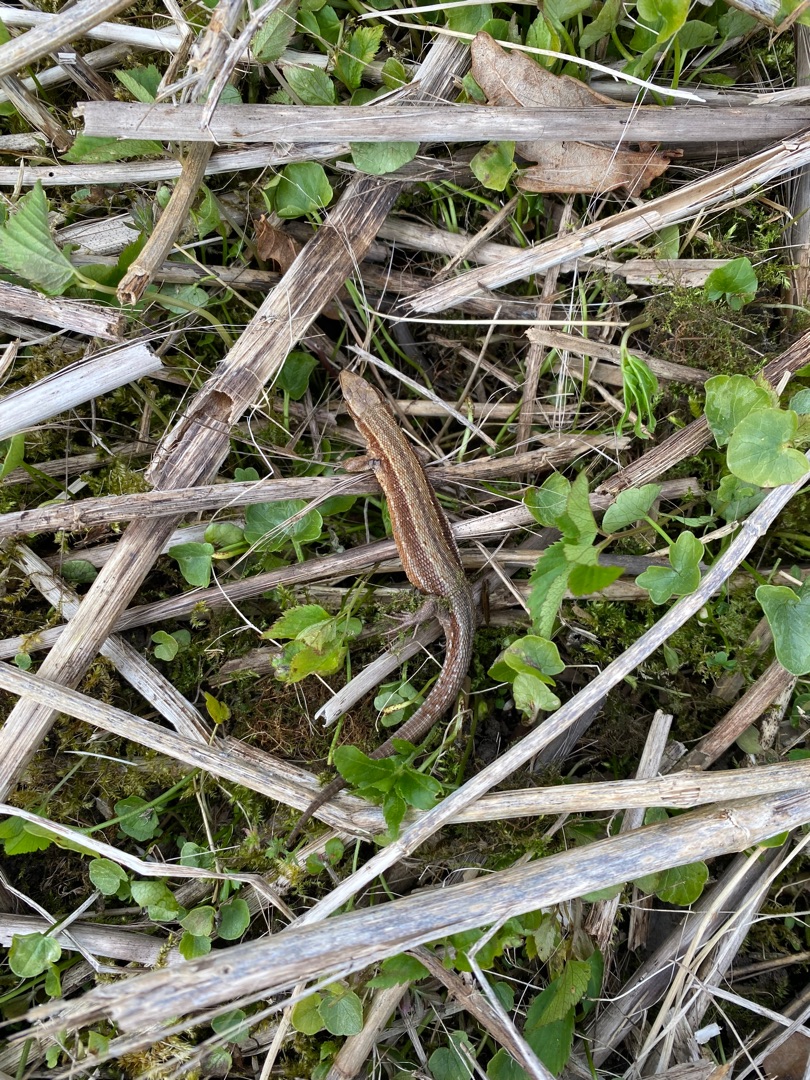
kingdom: Animalia
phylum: Chordata
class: Squamata
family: Lacertidae
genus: Zootoca
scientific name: Zootoca vivipara
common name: Skovfirben
